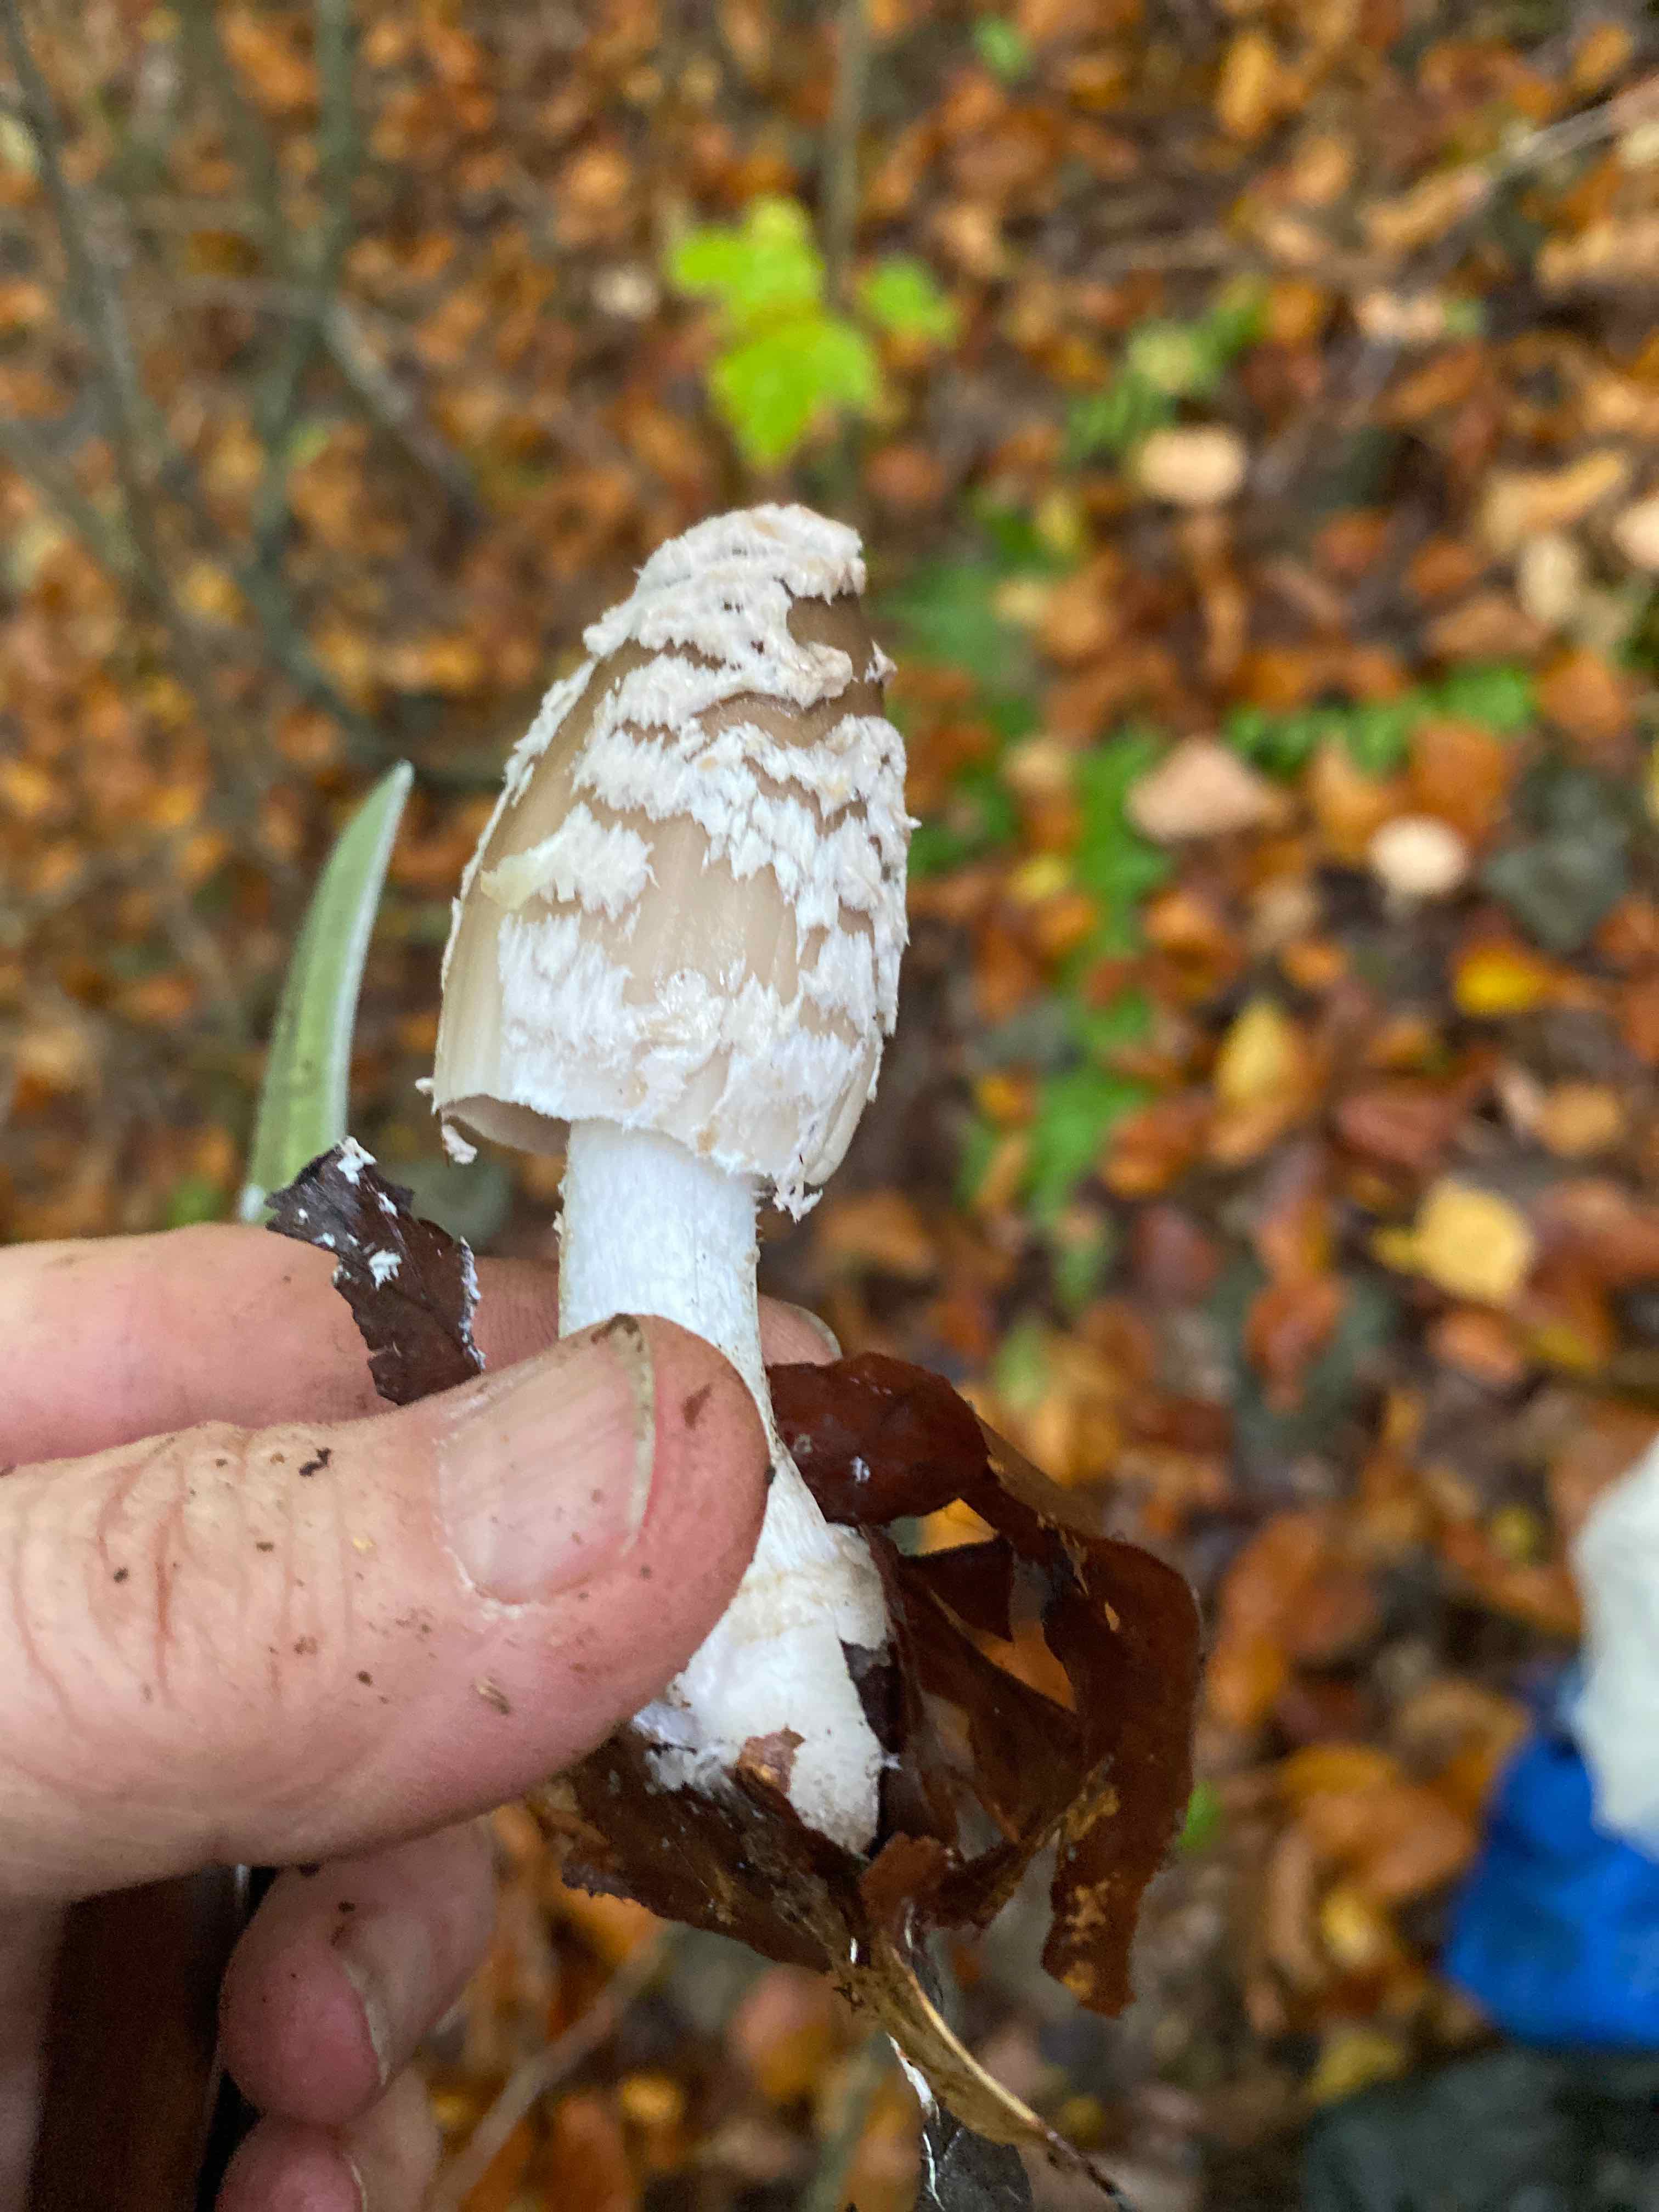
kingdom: Fungi
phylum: Basidiomycota
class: Agaricomycetes
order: Agaricales
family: Psathyrellaceae
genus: Coprinopsis
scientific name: Coprinopsis picacea
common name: skade-blækhat
